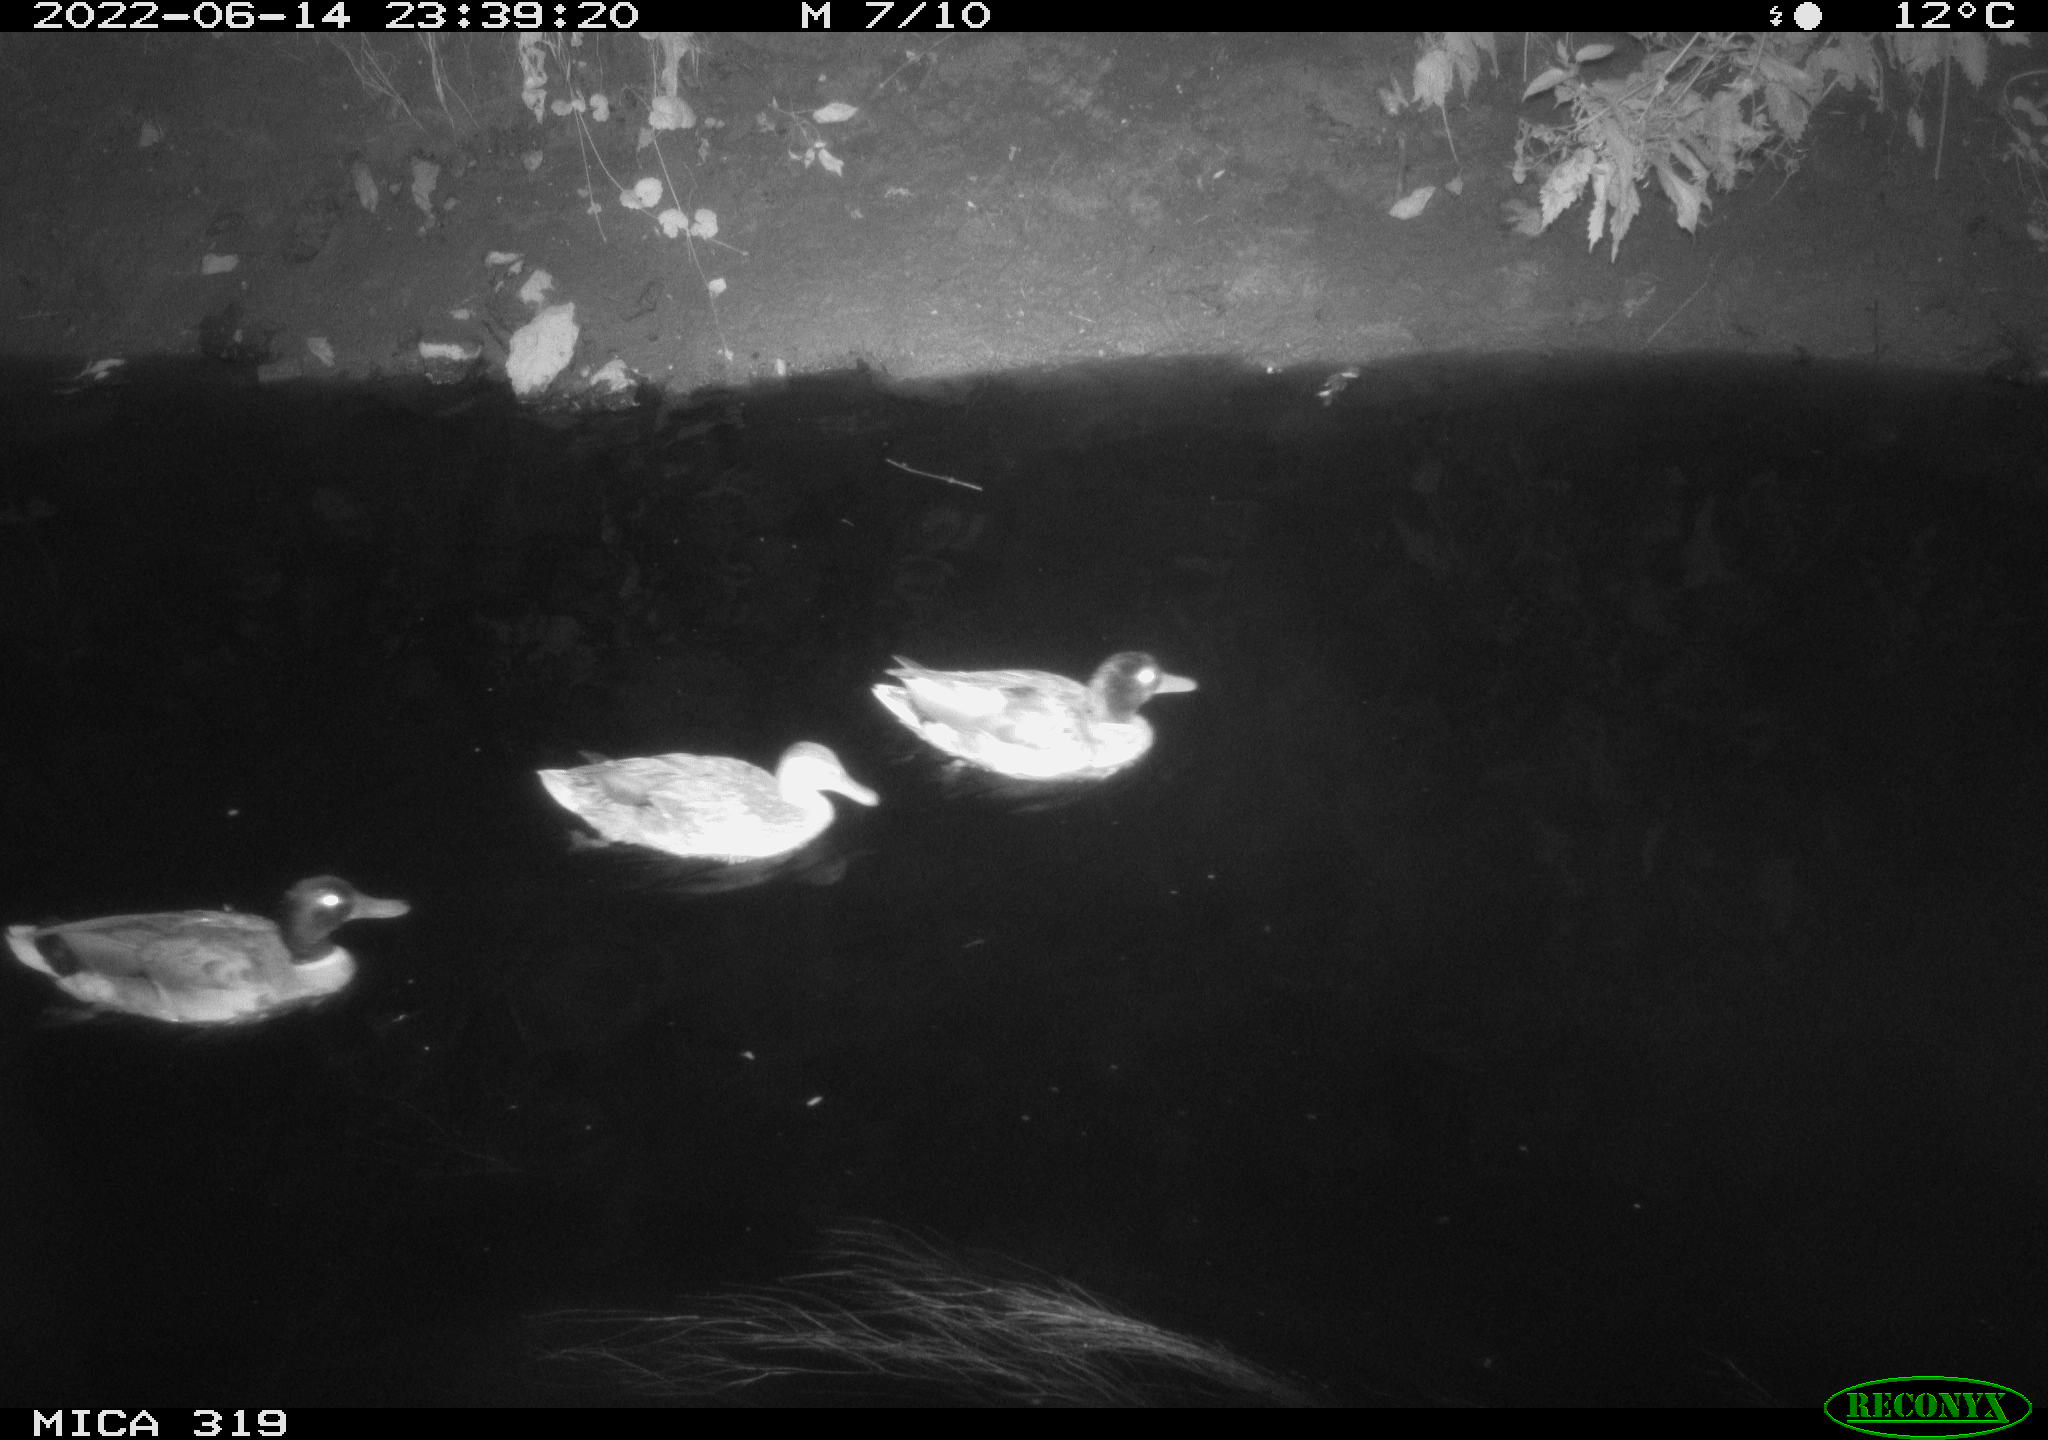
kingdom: Animalia
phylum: Chordata
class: Aves
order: Anseriformes
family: Anatidae
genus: Anas
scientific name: Anas
